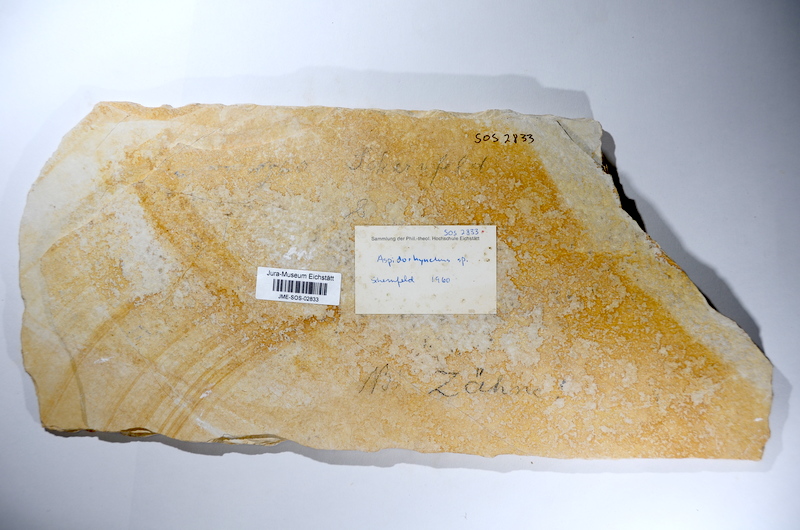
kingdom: Animalia
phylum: Chordata
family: Aspidorhynchidae
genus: Aspidorhynchus
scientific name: Aspidorhynchus acutirostris
